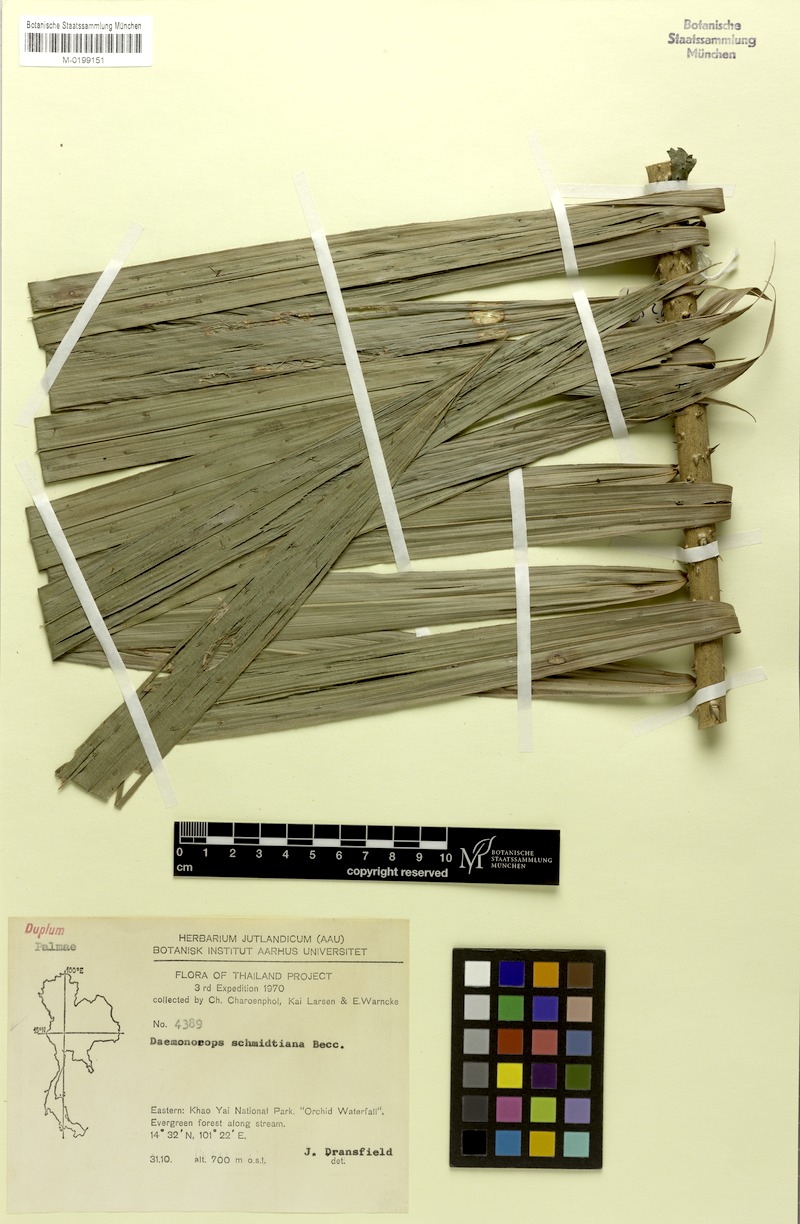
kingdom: Plantae
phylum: Tracheophyta
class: Liliopsida
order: Arecales
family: Arecaceae
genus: Calamus
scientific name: Calamus melanochaetes
